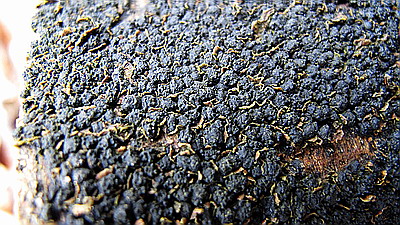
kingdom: Fungi
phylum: Ascomycota
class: Sordariomycetes
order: Xylariales
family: Melogrammataceae
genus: Melogramma
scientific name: Melogramma spiniferum
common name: bøgefod-kulhals
